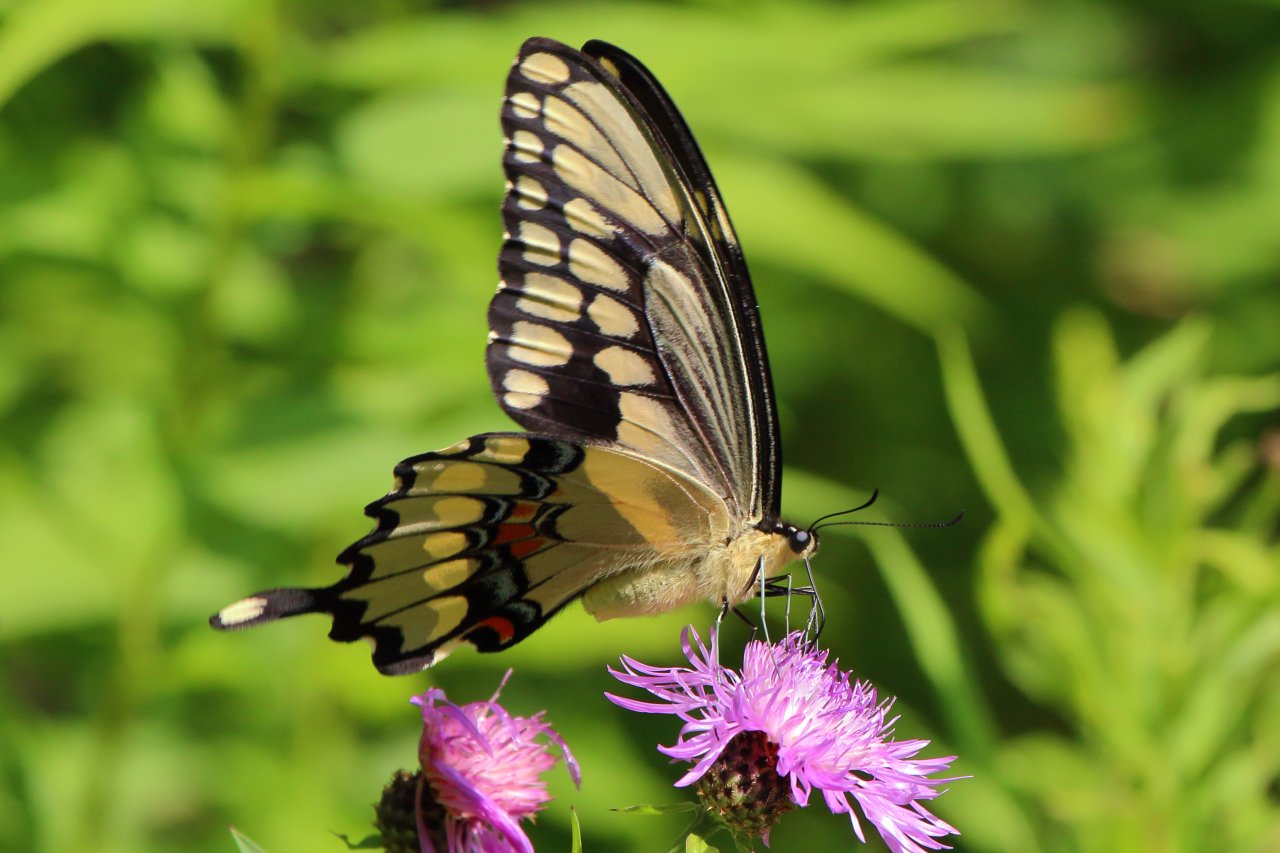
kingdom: Animalia
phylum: Arthropoda
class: Insecta
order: Lepidoptera
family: Papilionidae
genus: Papilio
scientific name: Papilio cresphontes
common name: Eastern Giant Swallowtail
